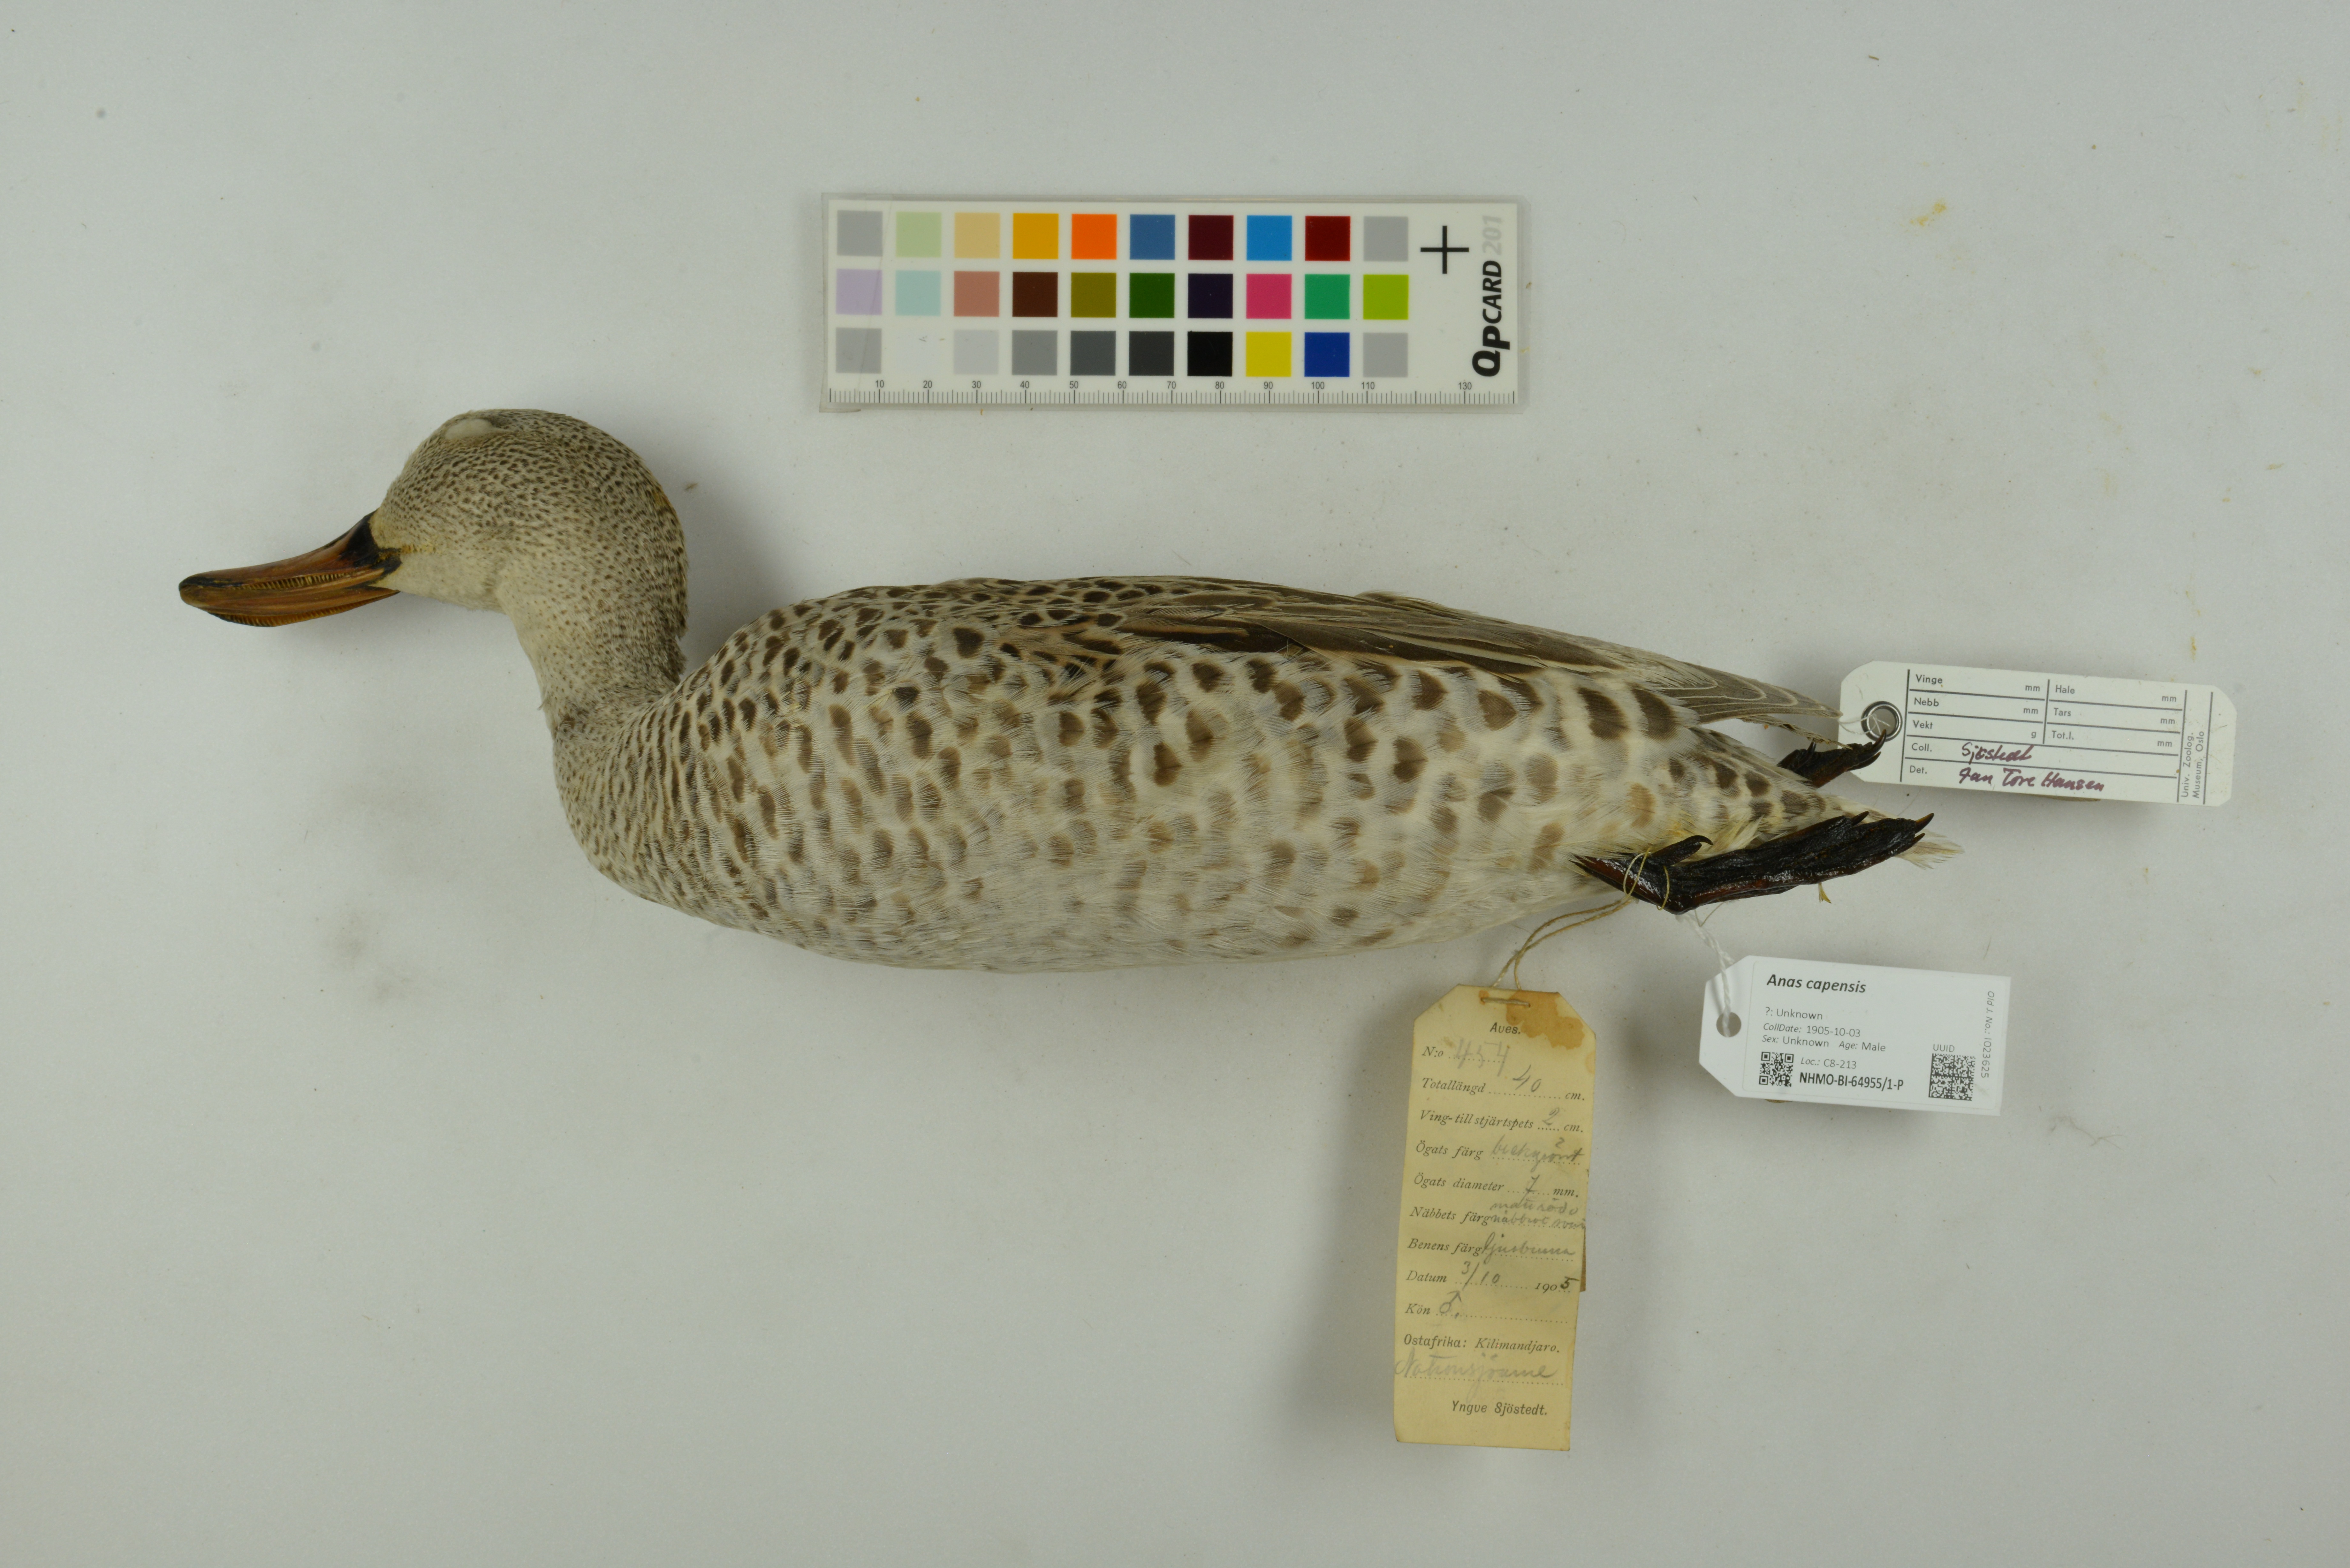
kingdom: Animalia
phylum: Chordata
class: Aves
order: Anseriformes
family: Anatidae
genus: Anas
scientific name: Anas capensis
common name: Cape teal
